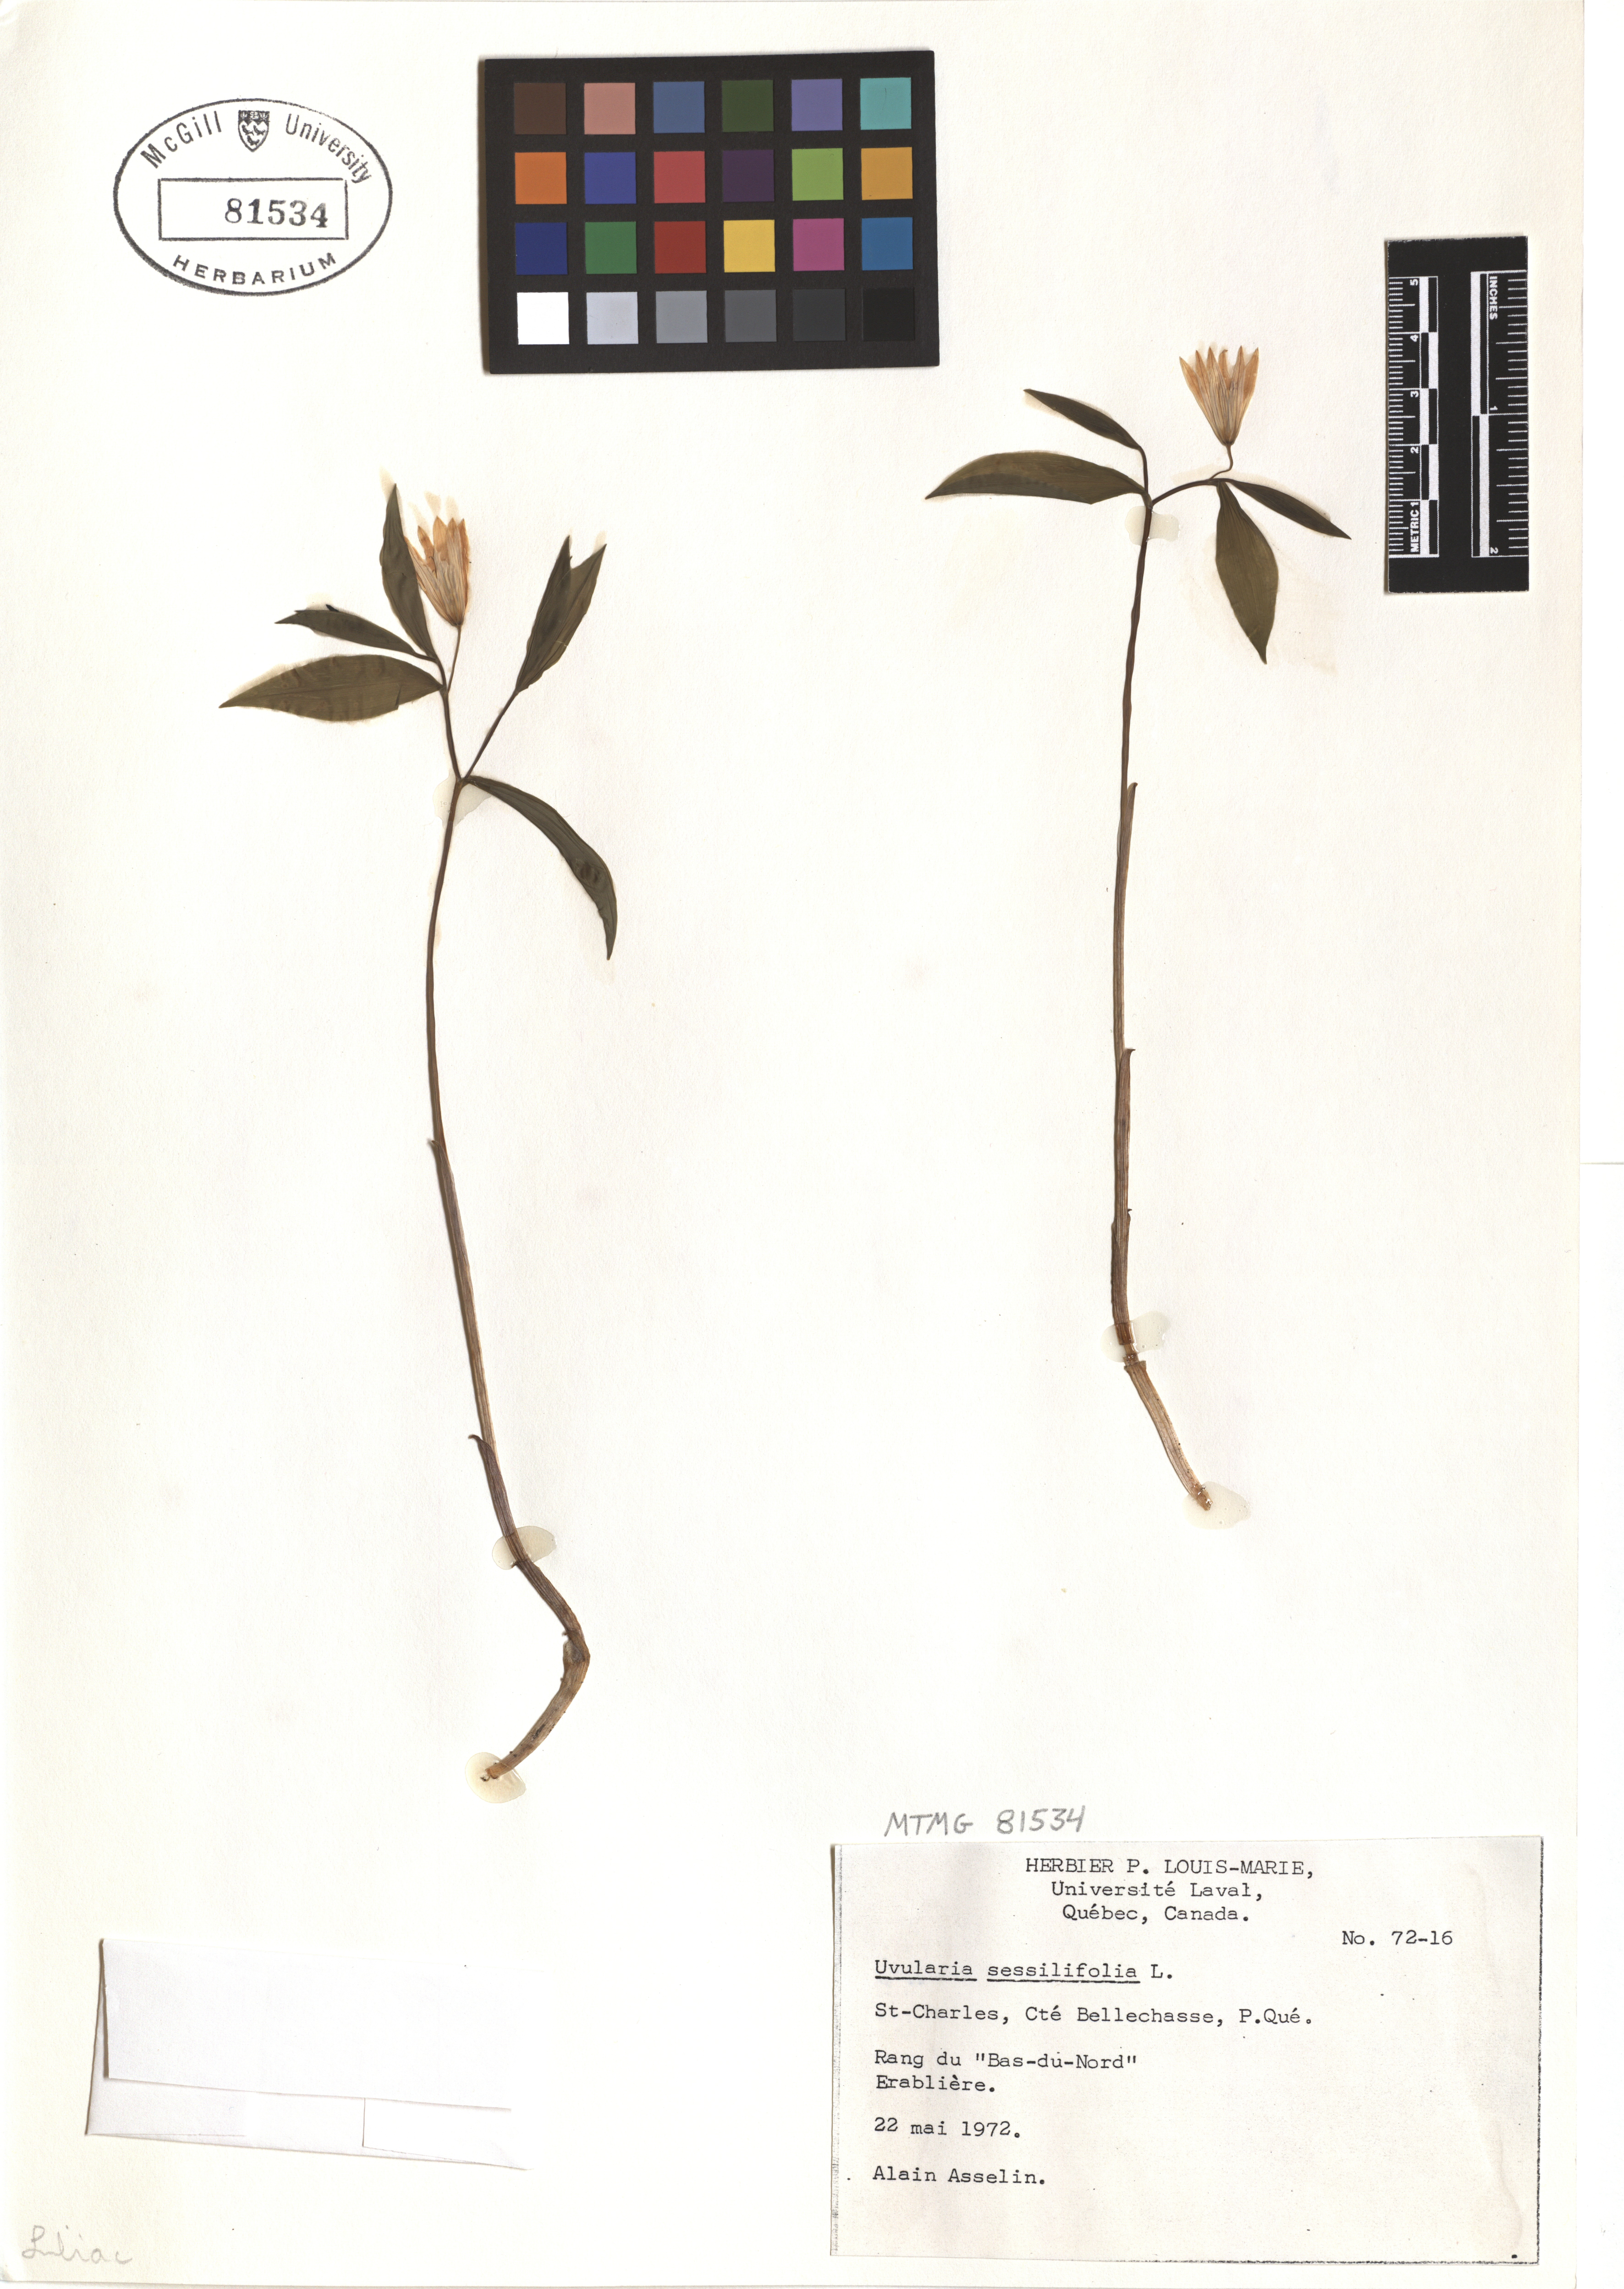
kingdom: Plantae
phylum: Tracheophyta
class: Liliopsida
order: Liliales
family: Colchicaceae
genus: Uvularia
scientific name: Uvularia sessilifolia
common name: Straw-lily
